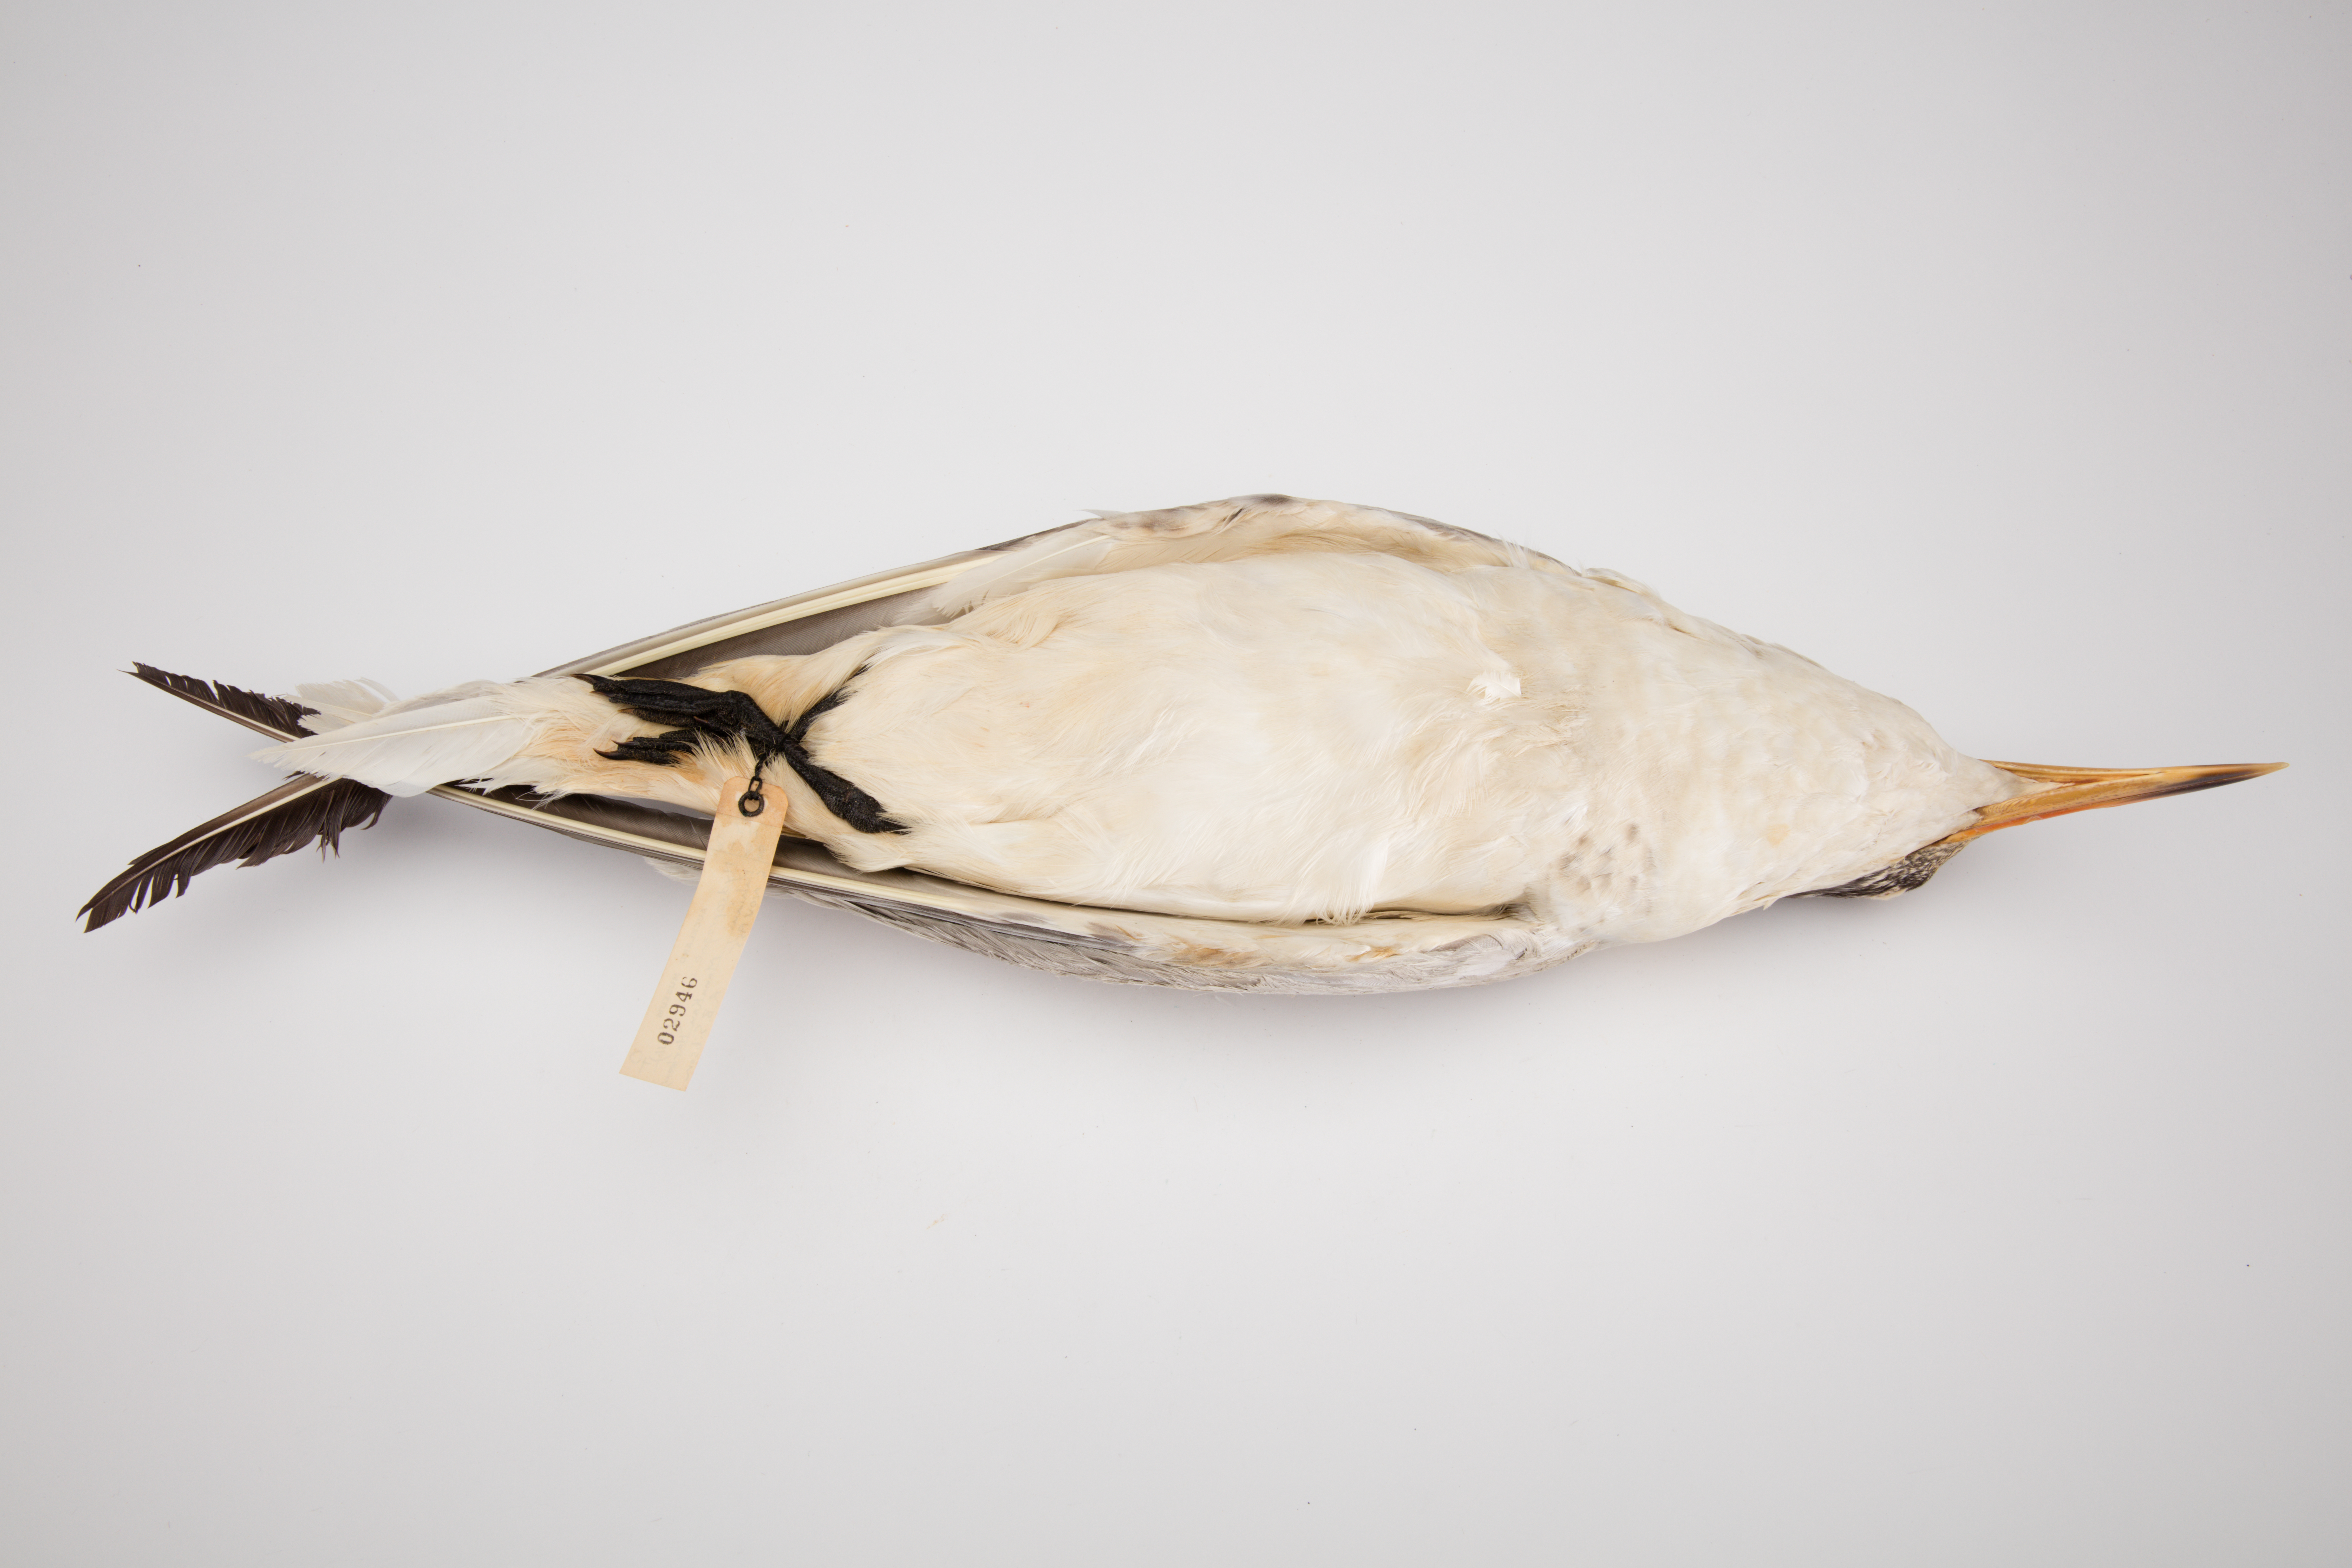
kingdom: Animalia
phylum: Chordata
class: Aves
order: Charadriiformes
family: Laridae
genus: Hydroprogne
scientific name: Hydroprogne caspia
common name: Caspian tern
